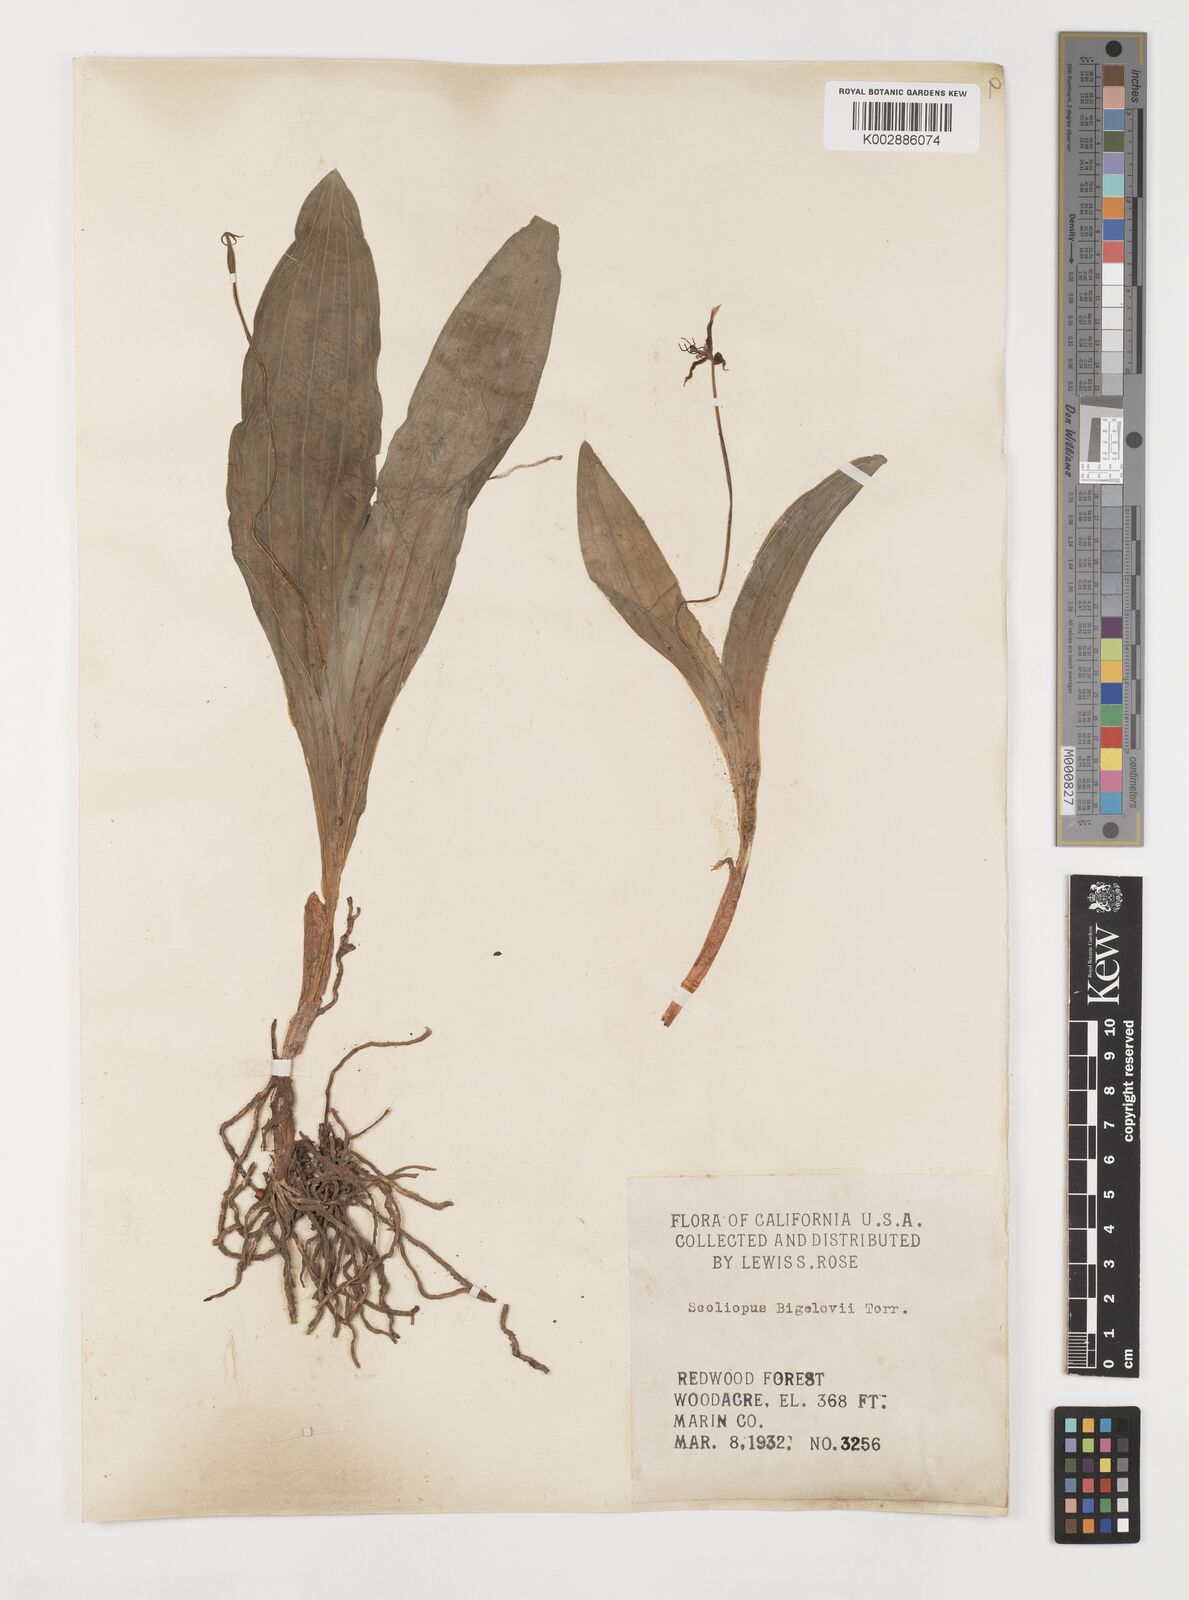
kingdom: Plantae
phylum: Tracheophyta
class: Liliopsida
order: Liliales
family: Liliaceae
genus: Scoliopus
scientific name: Scoliopus bigelovii
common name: Foetid adder's-tongue
